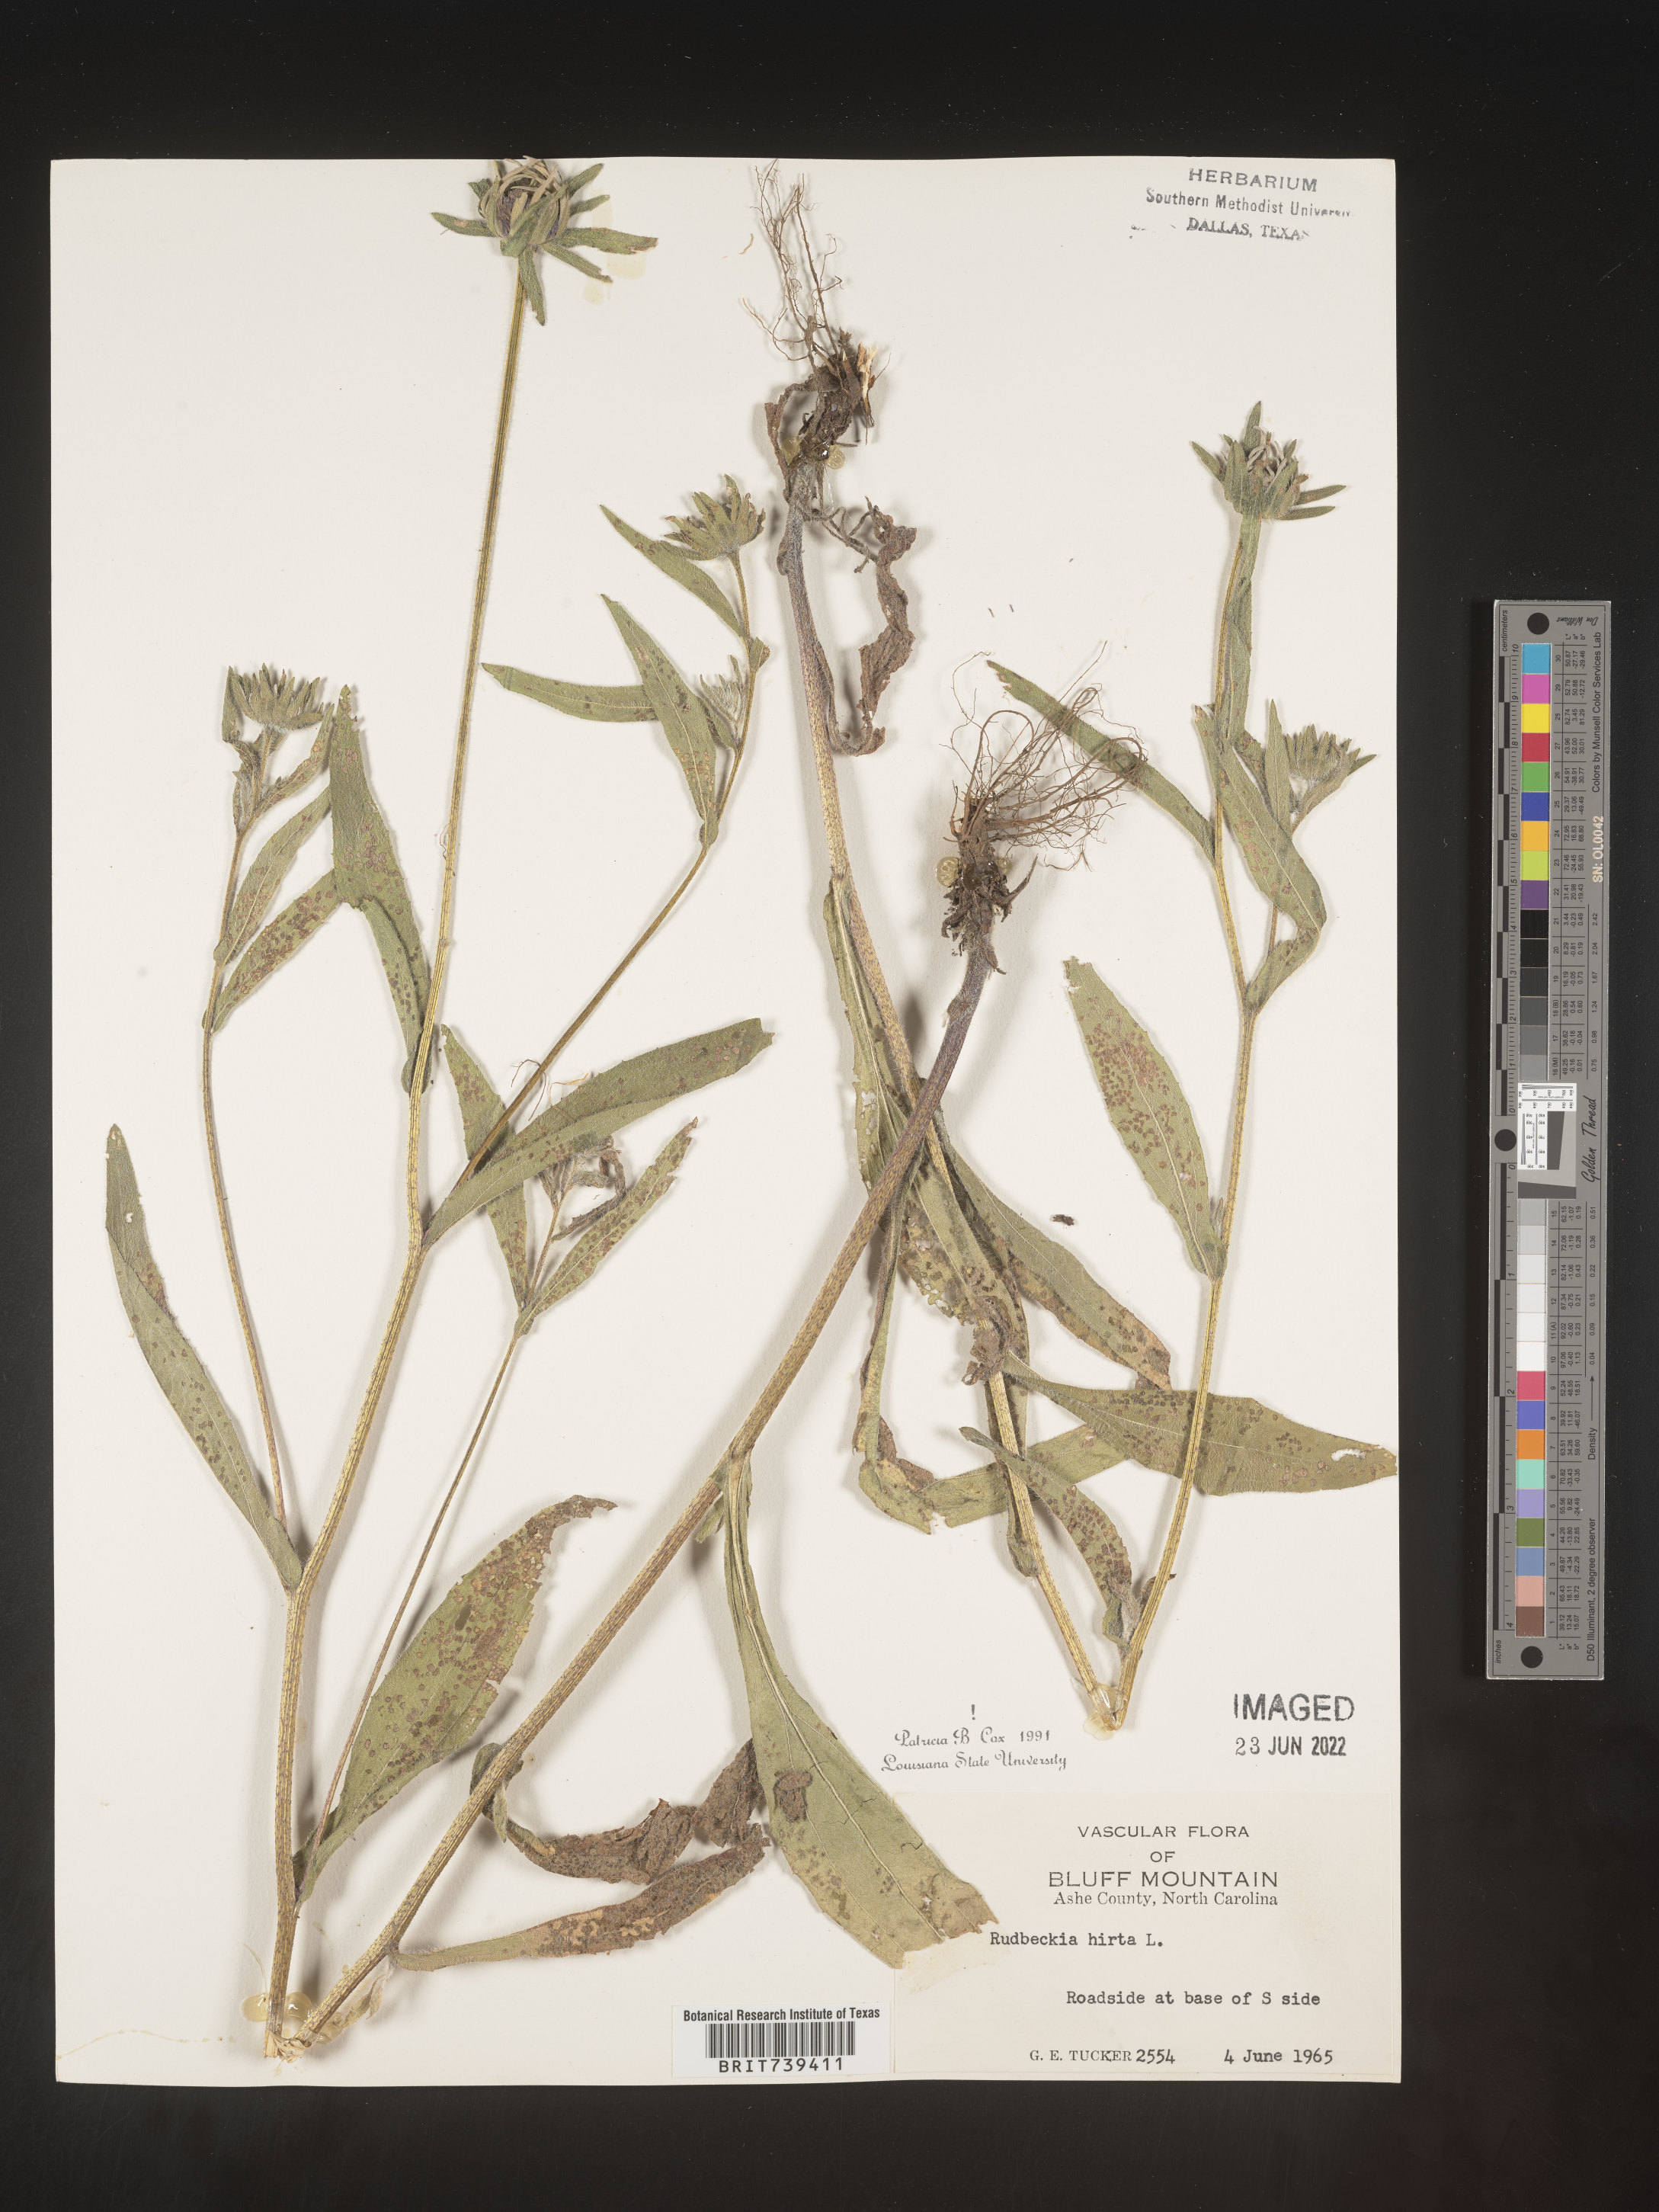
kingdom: Plantae
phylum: Tracheophyta
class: Magnoliopsida
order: Asterales
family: Asteraceae
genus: Rudbeckia
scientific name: Rudbeckia hirta
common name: Black-eyed-susan
